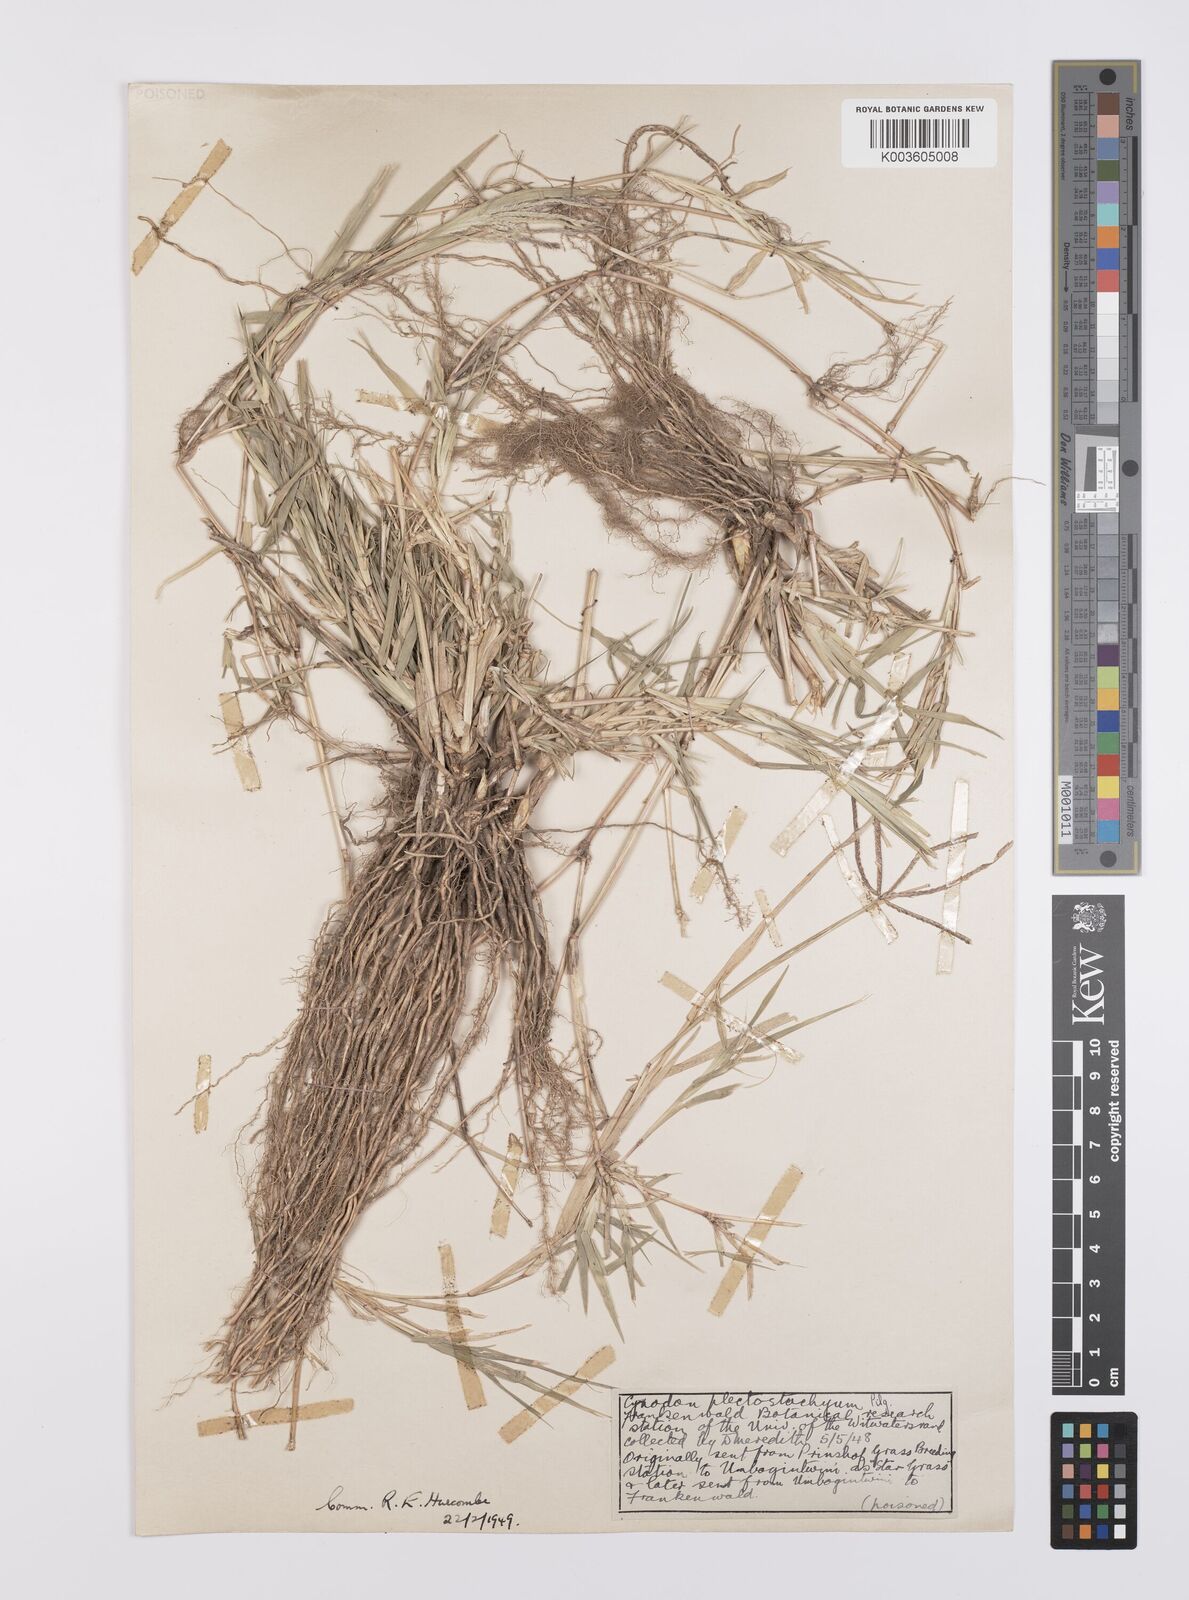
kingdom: Plantae
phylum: Tracheophyta
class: Liliopsida
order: Poales
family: Poaceae
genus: Cynodon
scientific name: Cynodon aethiopicus
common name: Ethiopian dogstooth grass
